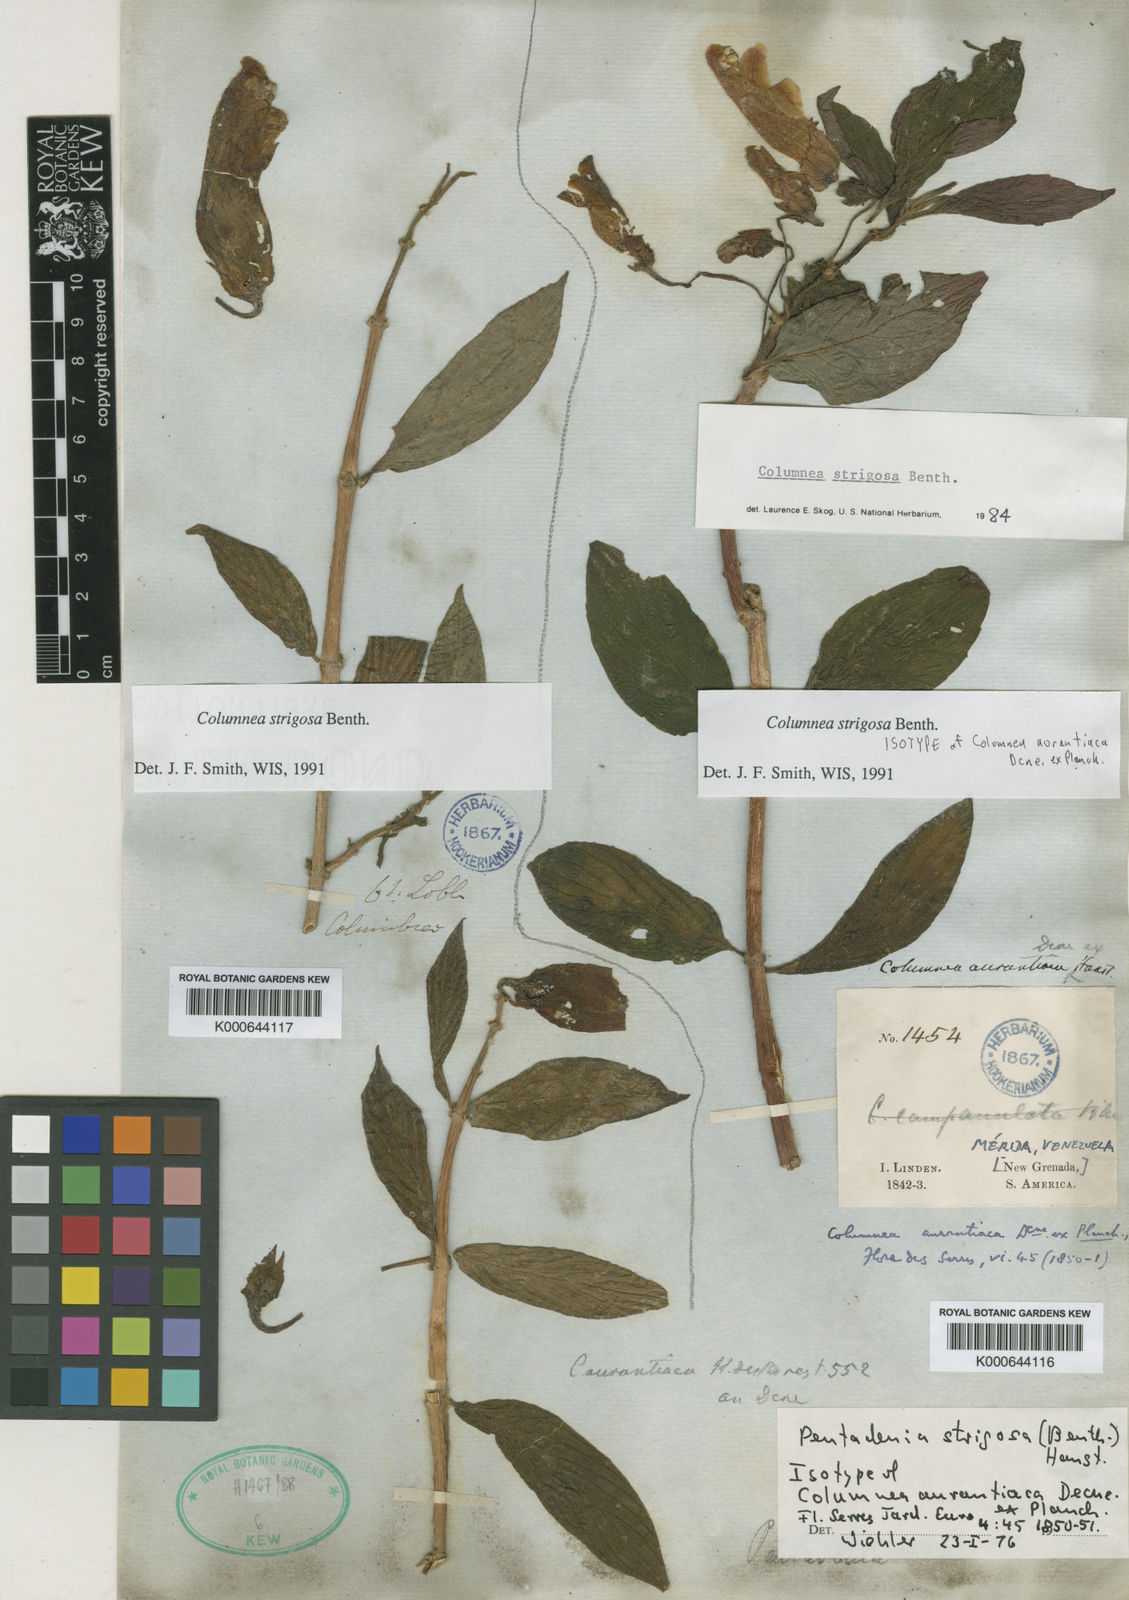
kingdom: Plantae
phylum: Tracheophyta
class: Magnoliopsida
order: Lamiales
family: Gesneriaceae
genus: Columnea
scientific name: Columnea strigosa
